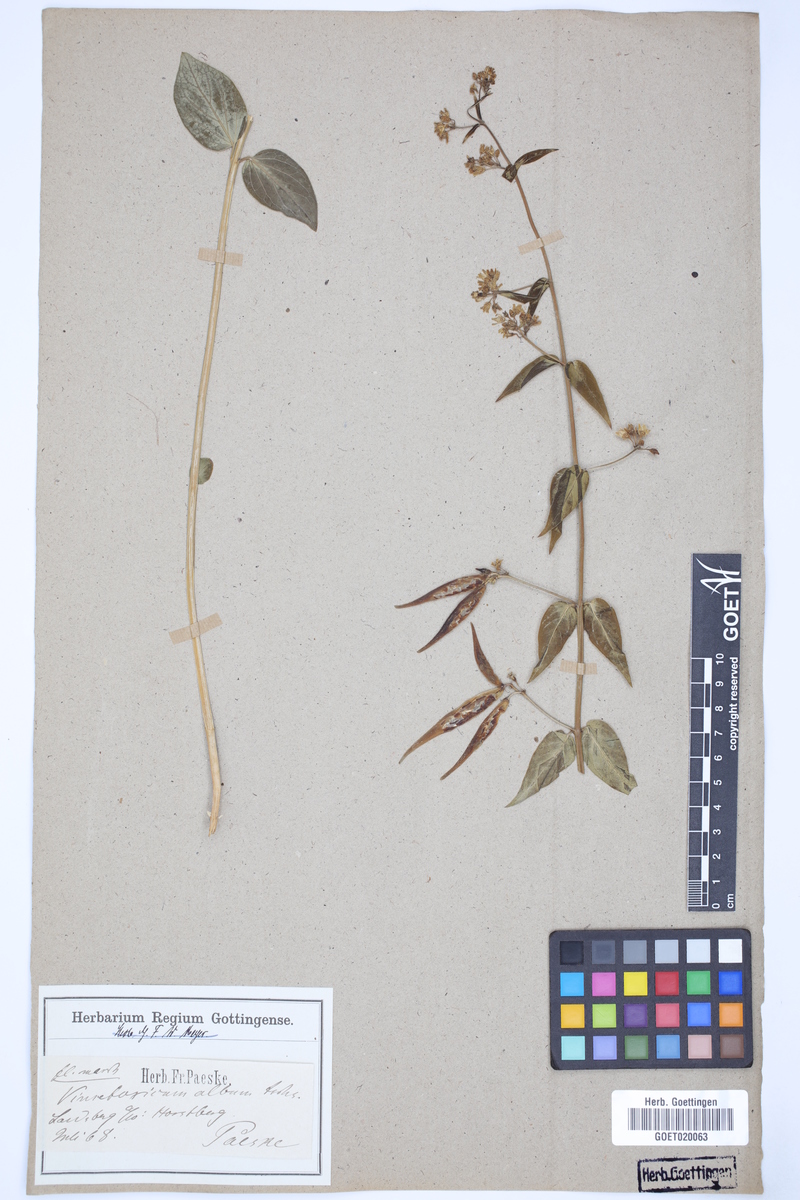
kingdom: Plantae
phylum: Tracheophyta
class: Magnoliopsida
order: Gentianales
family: Apocynaceae
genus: Vincetoxicum
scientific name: Vincetoxicum hirundinaria
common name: White swallowwort
